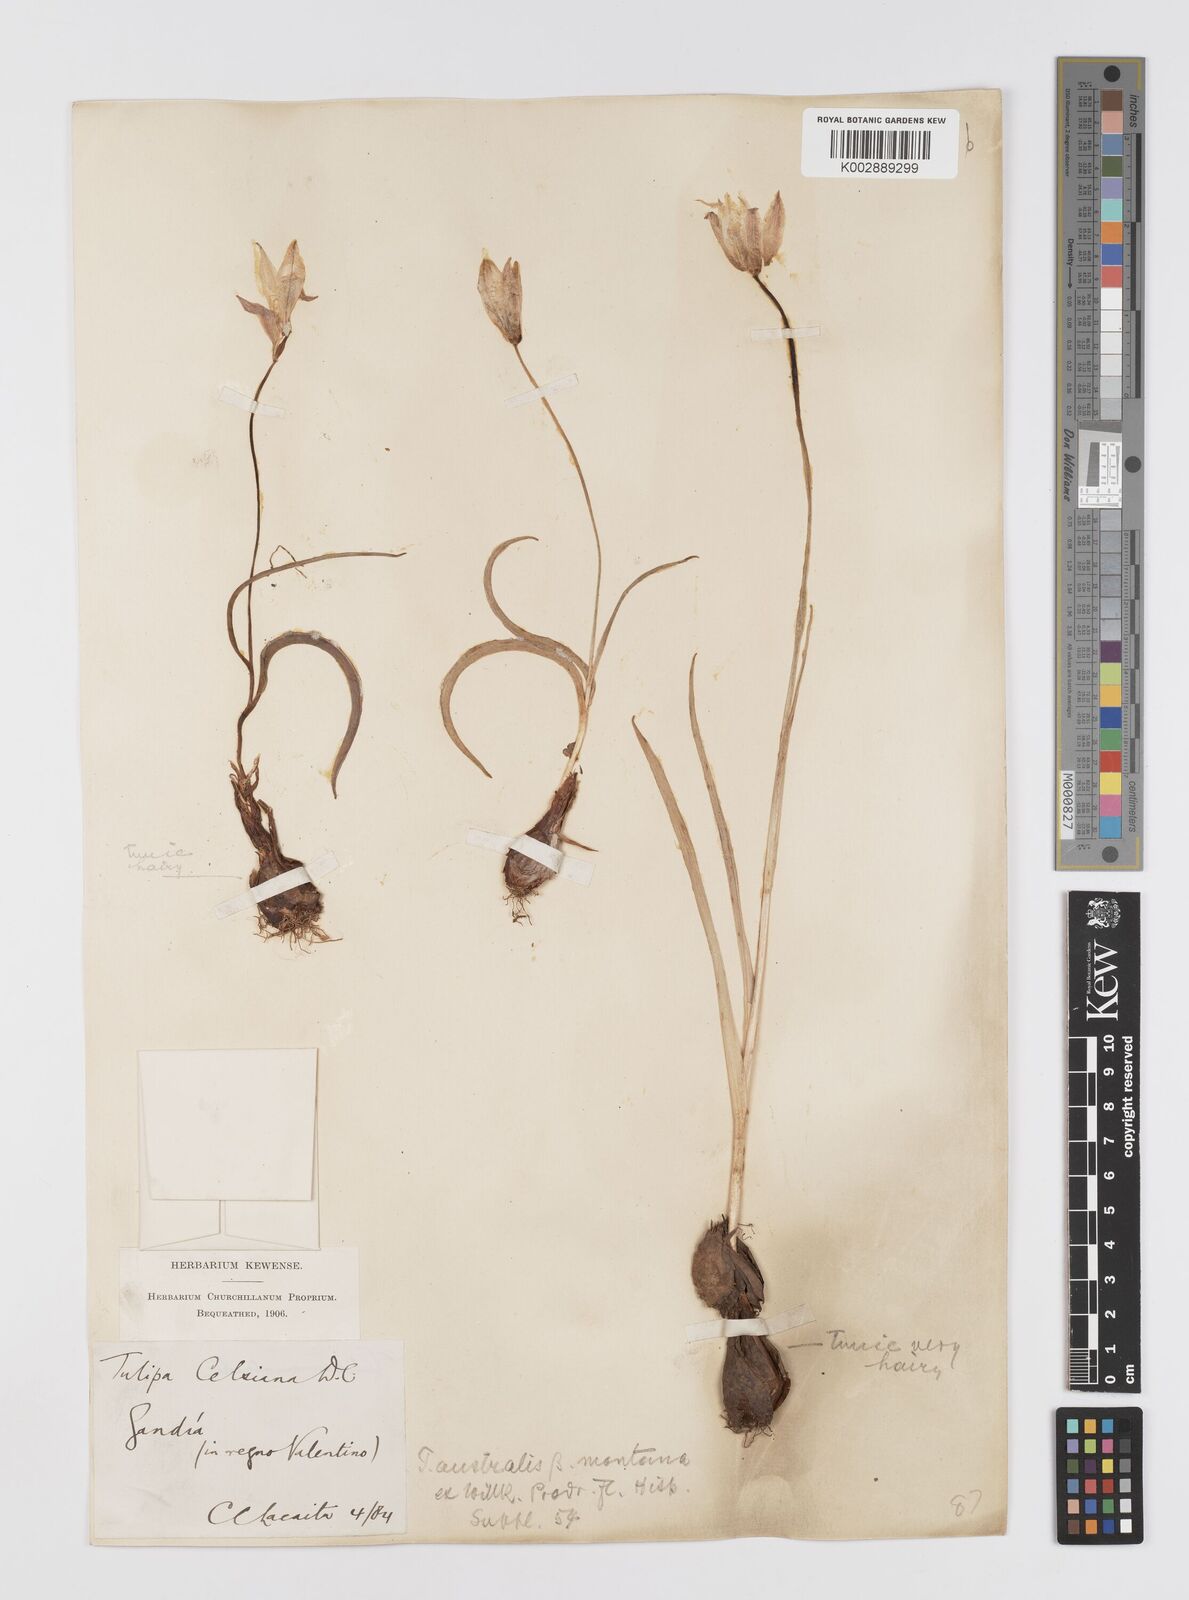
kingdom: Plantae
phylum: Tracheophyta
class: Liliopsida
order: Liliales
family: Liliaceae
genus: Tulipa
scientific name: Tulipa
